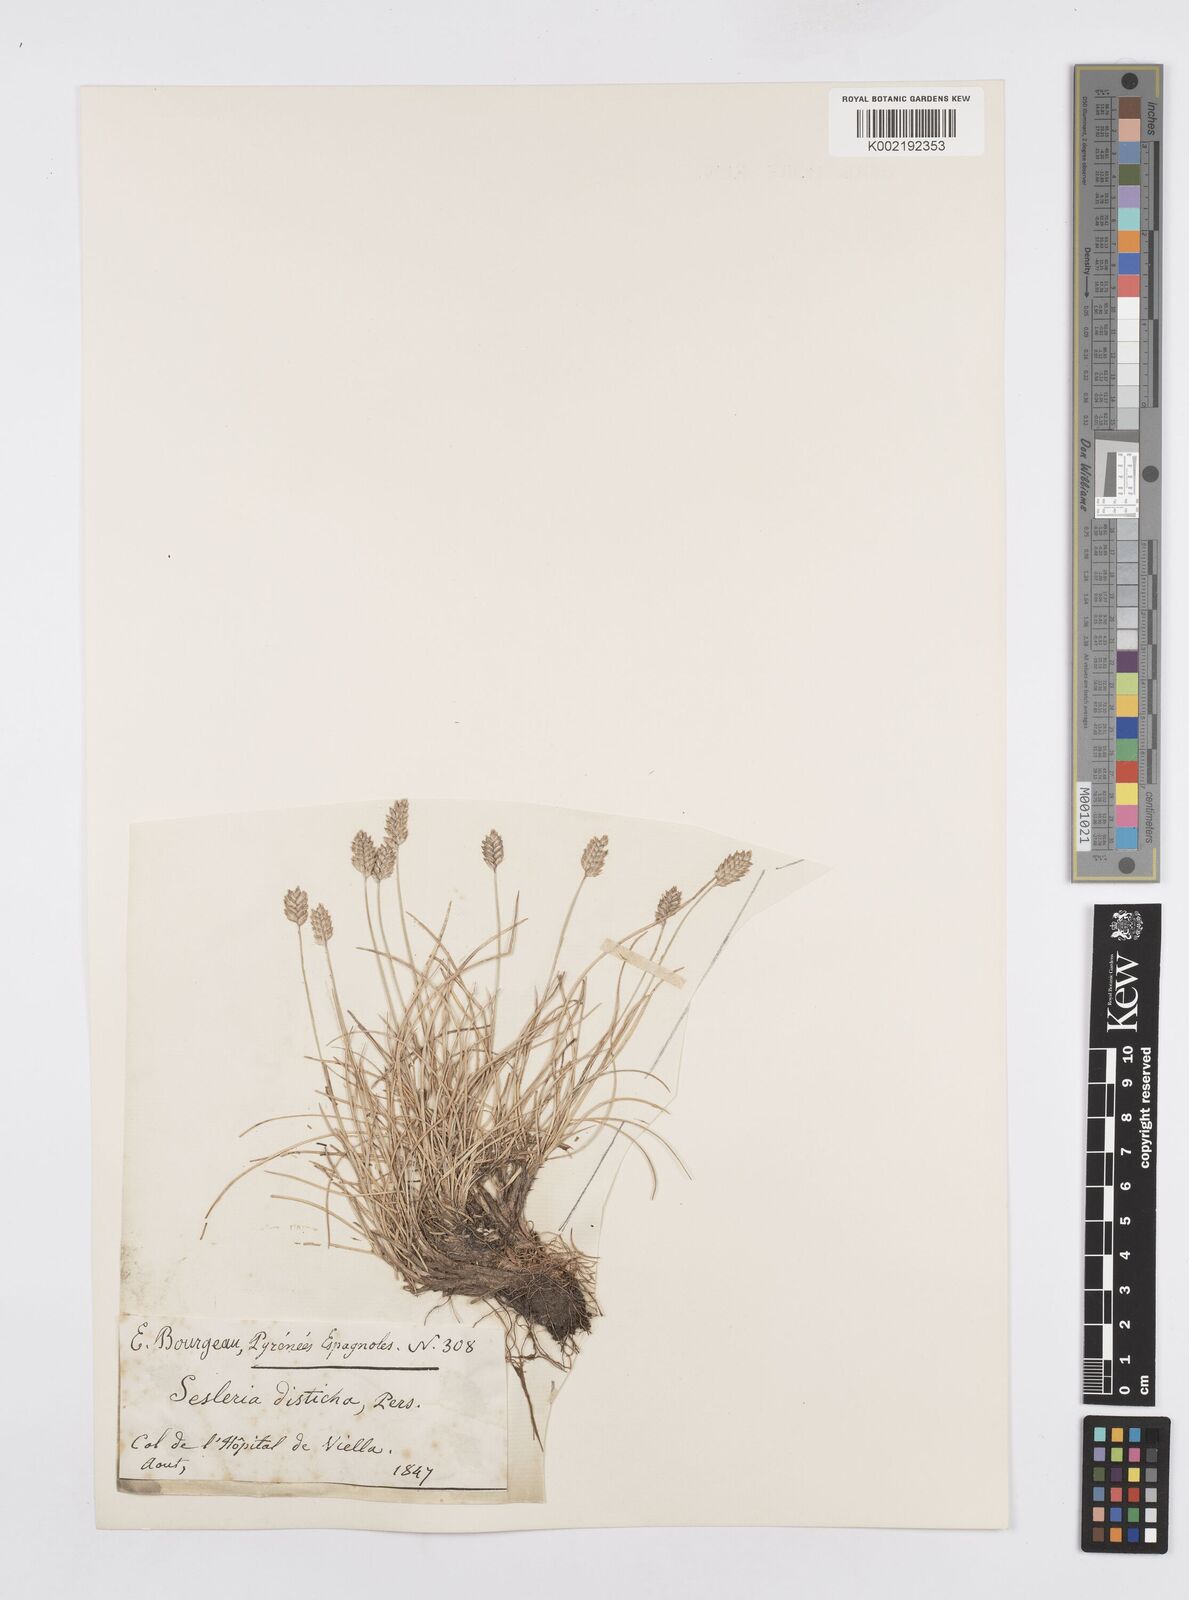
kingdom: Plantae
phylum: Tracheophyta
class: Liliopsida
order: Poales
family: Poaceae
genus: Oreochloa
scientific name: Oreochloa elegans
